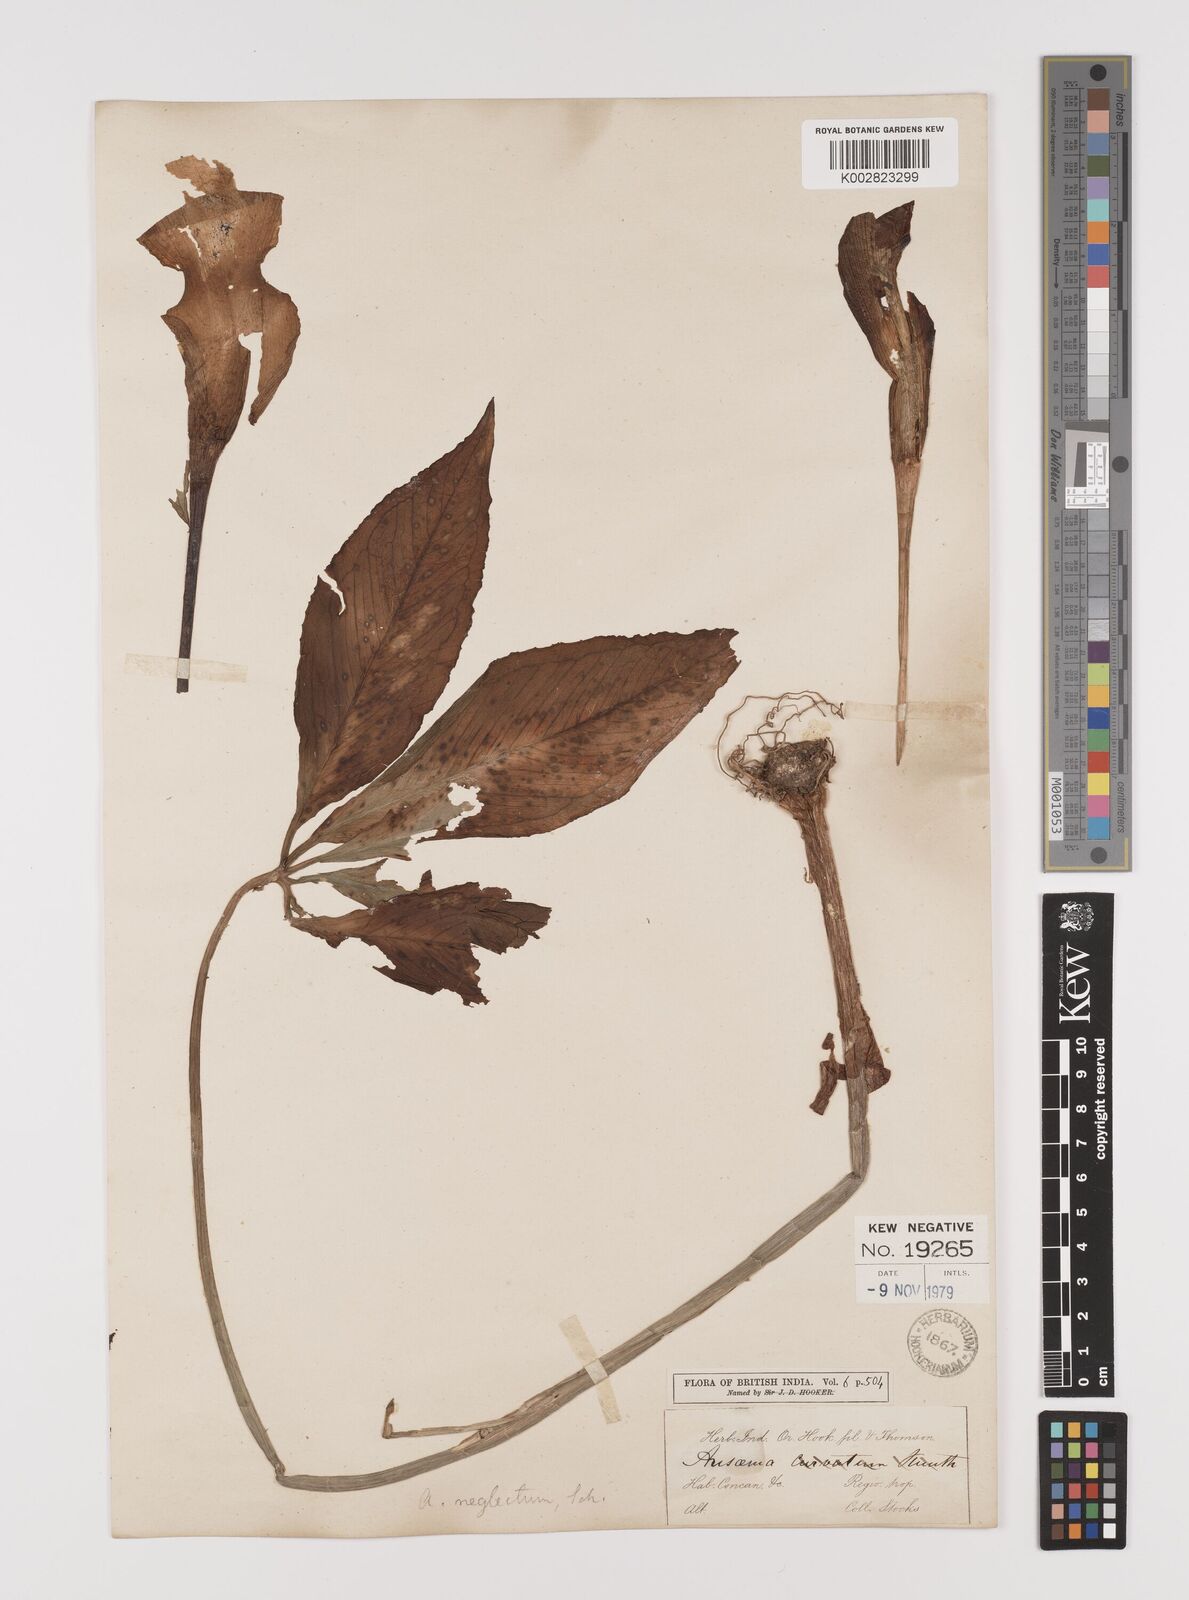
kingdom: Plantae
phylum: Tracheophyta
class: Liliopsida
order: Alismatales
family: Araceae
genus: Arisaema
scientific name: Arisaema tortuosum
